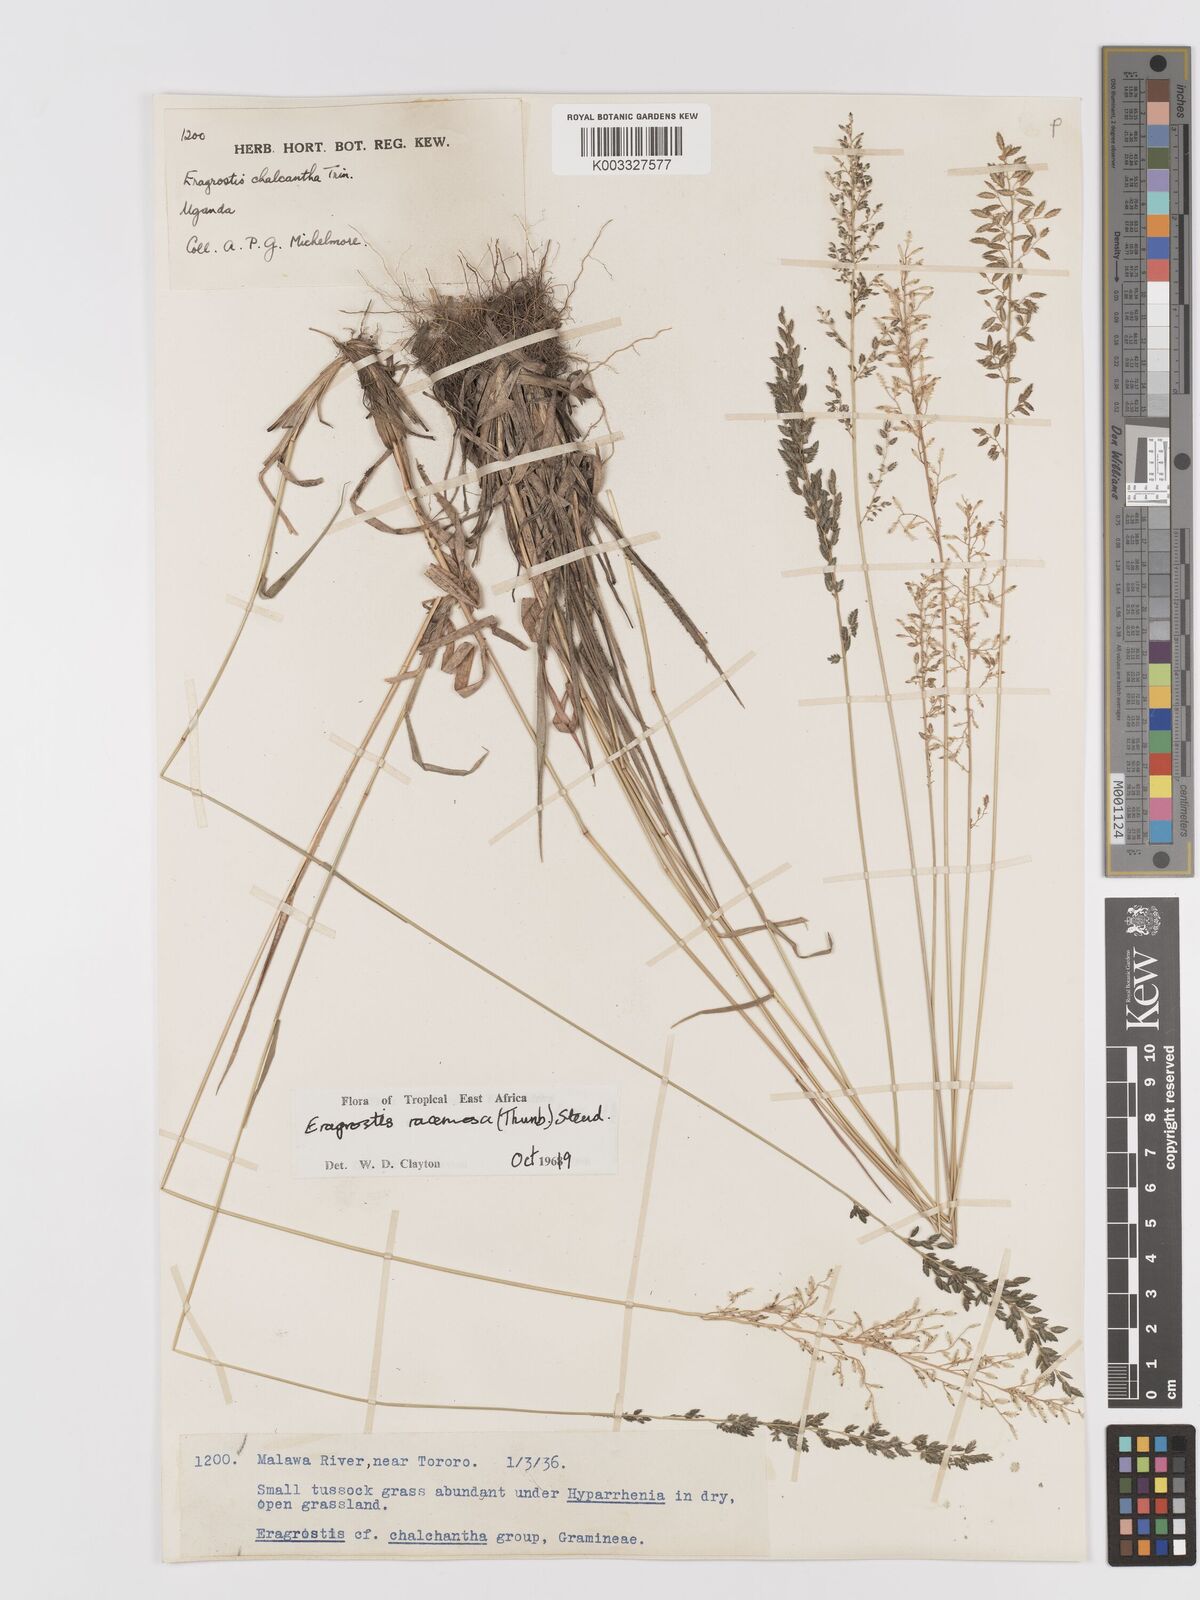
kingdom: Plantae
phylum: Tracheophyta
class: Liliopsida
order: Poales
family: Poaceae
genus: Eragrostis
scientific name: Eragrostis racemosa
